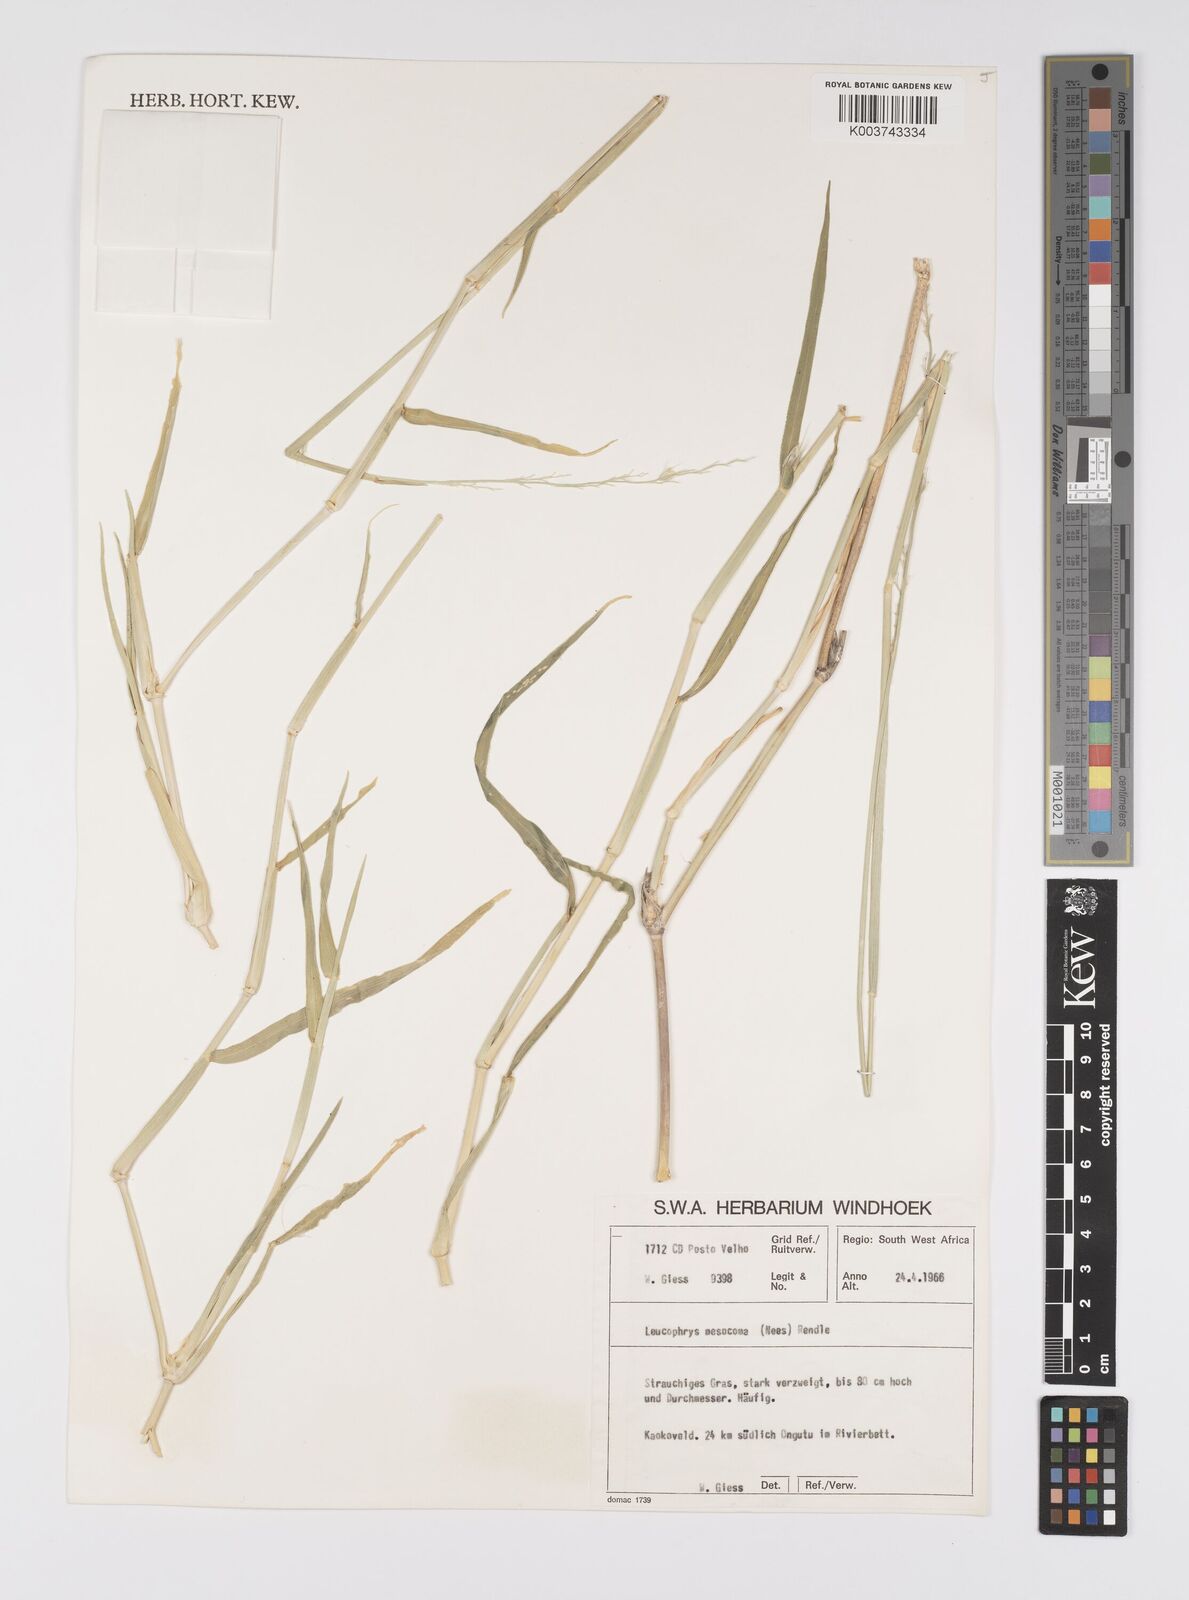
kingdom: Plantae
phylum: Tracheophyta
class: Liliopsida
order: Poales
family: Poaceae
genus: Urochloa
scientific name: Urochloa Brachiaria mesocoma
